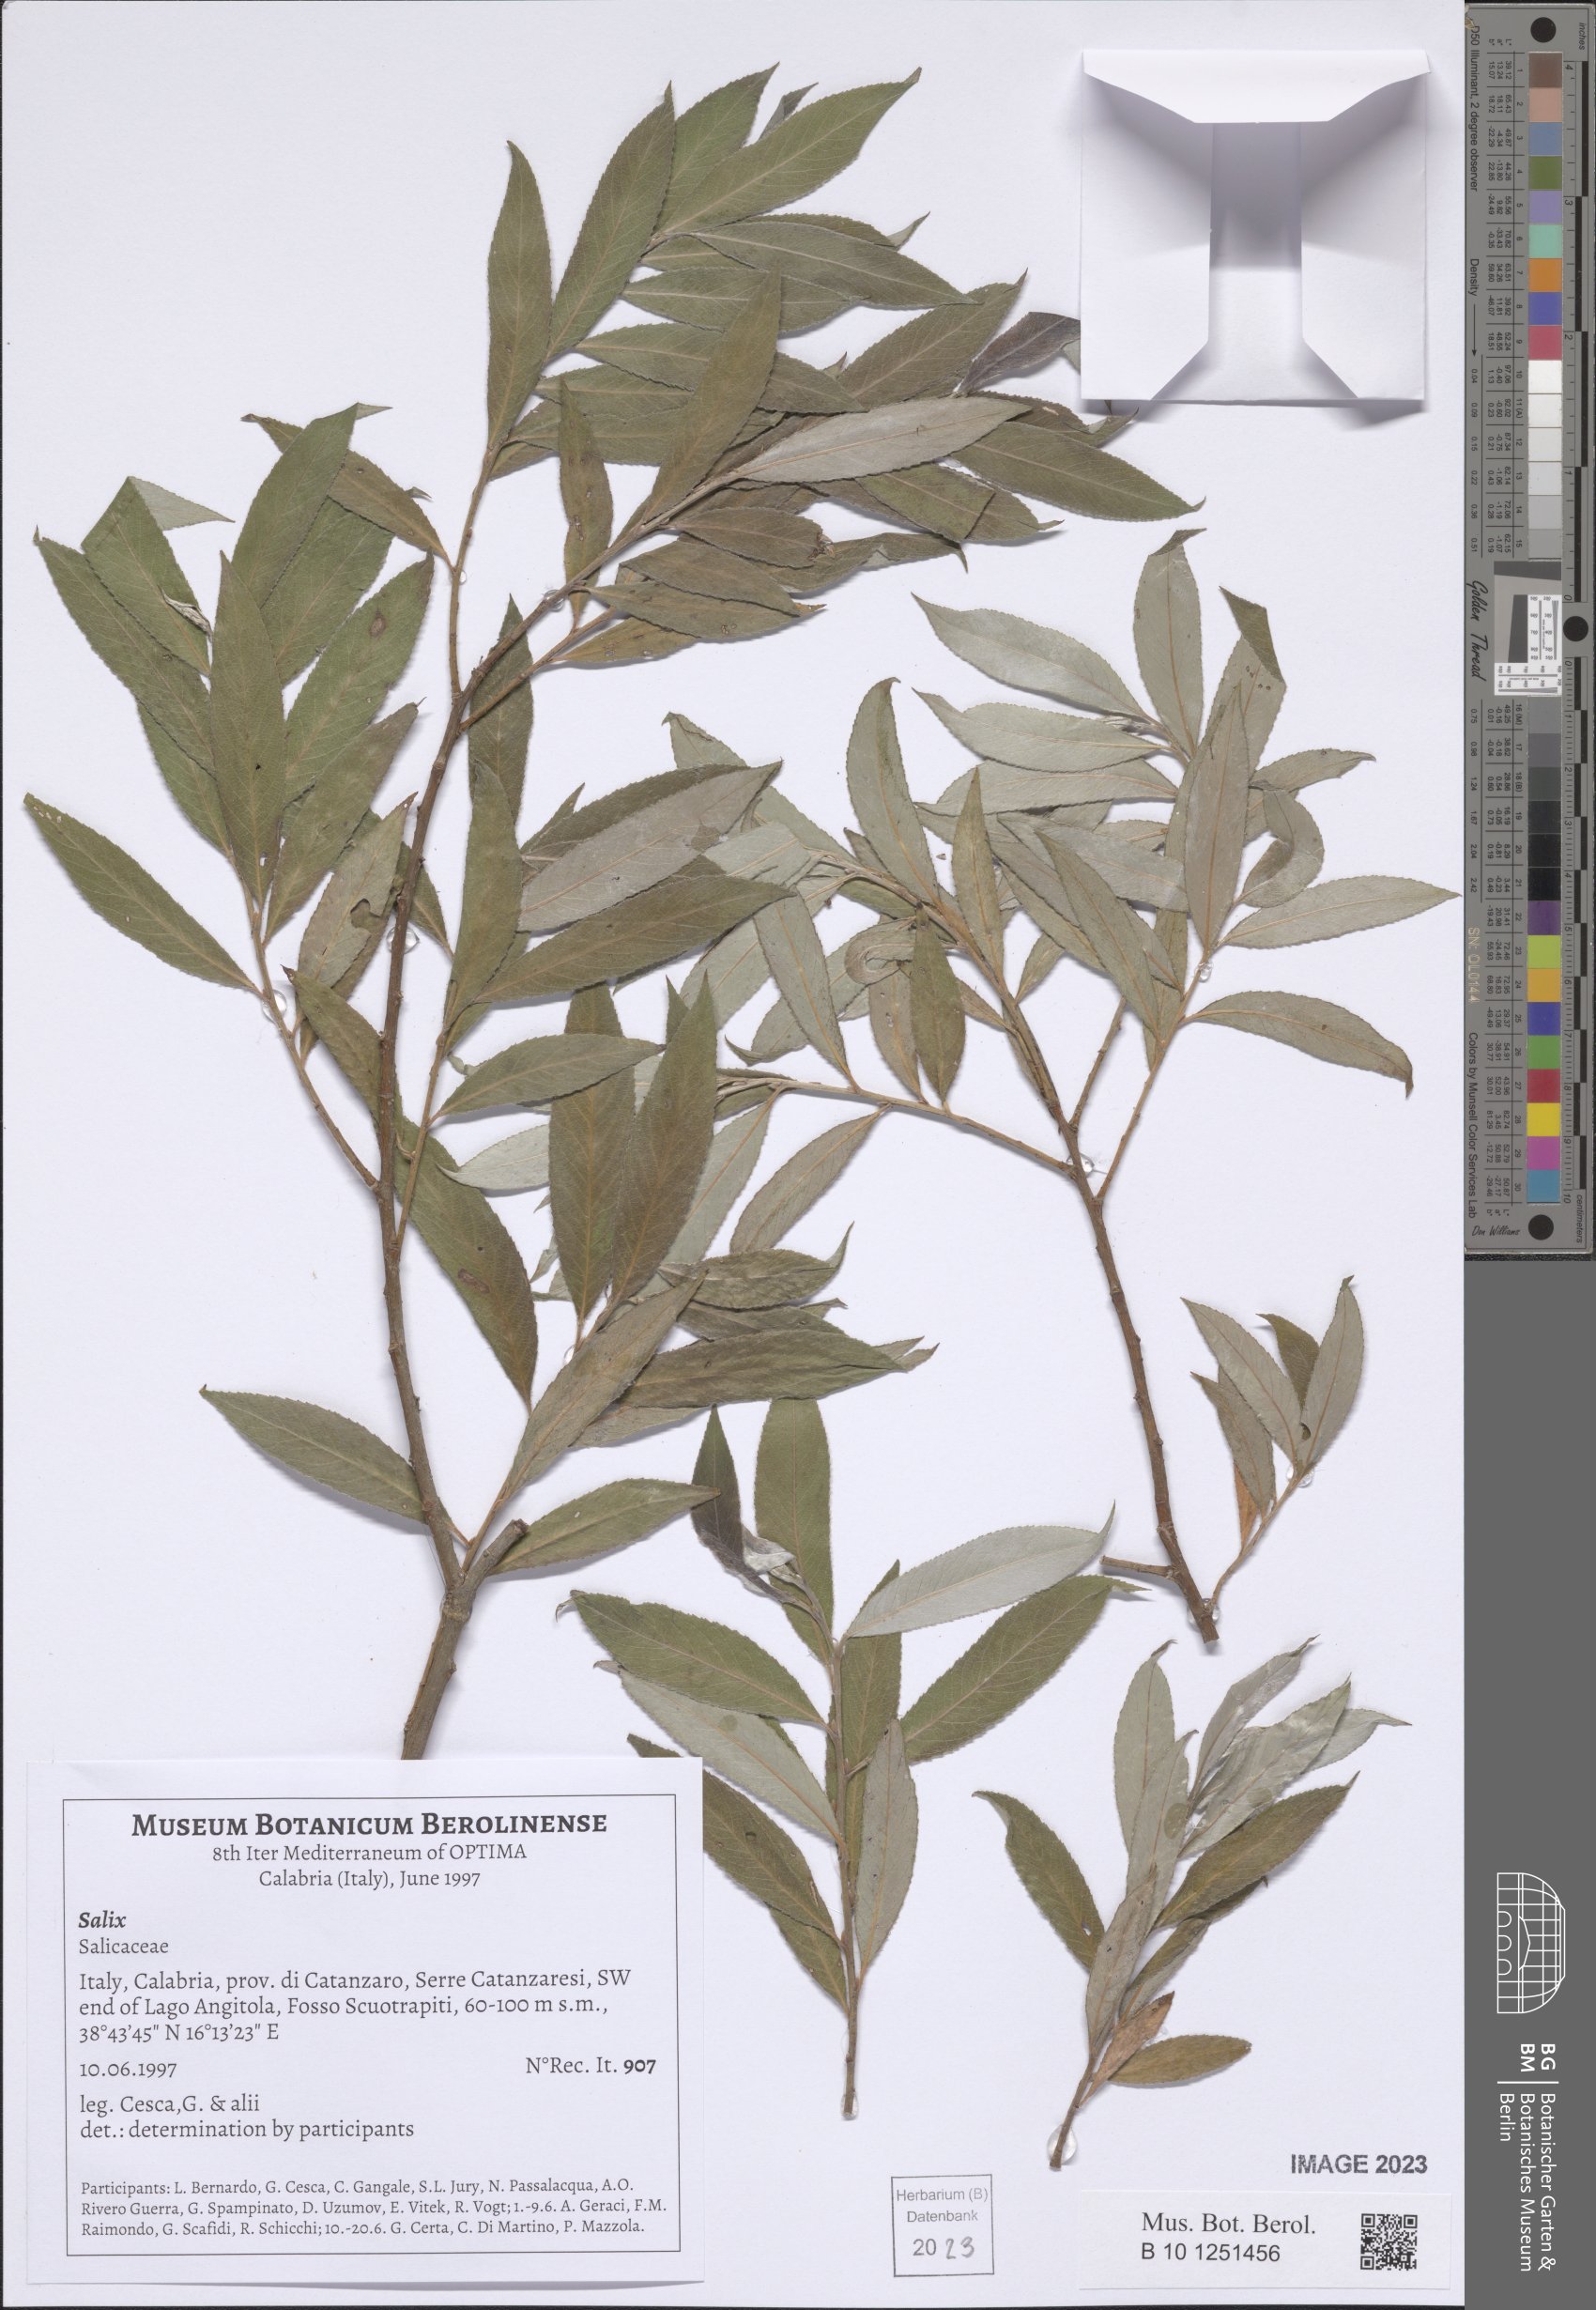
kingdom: Plantae
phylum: Tracheophyta
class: Magnoliopsida
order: Malpighiales
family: Salicaceae
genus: Salix
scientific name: Salix
